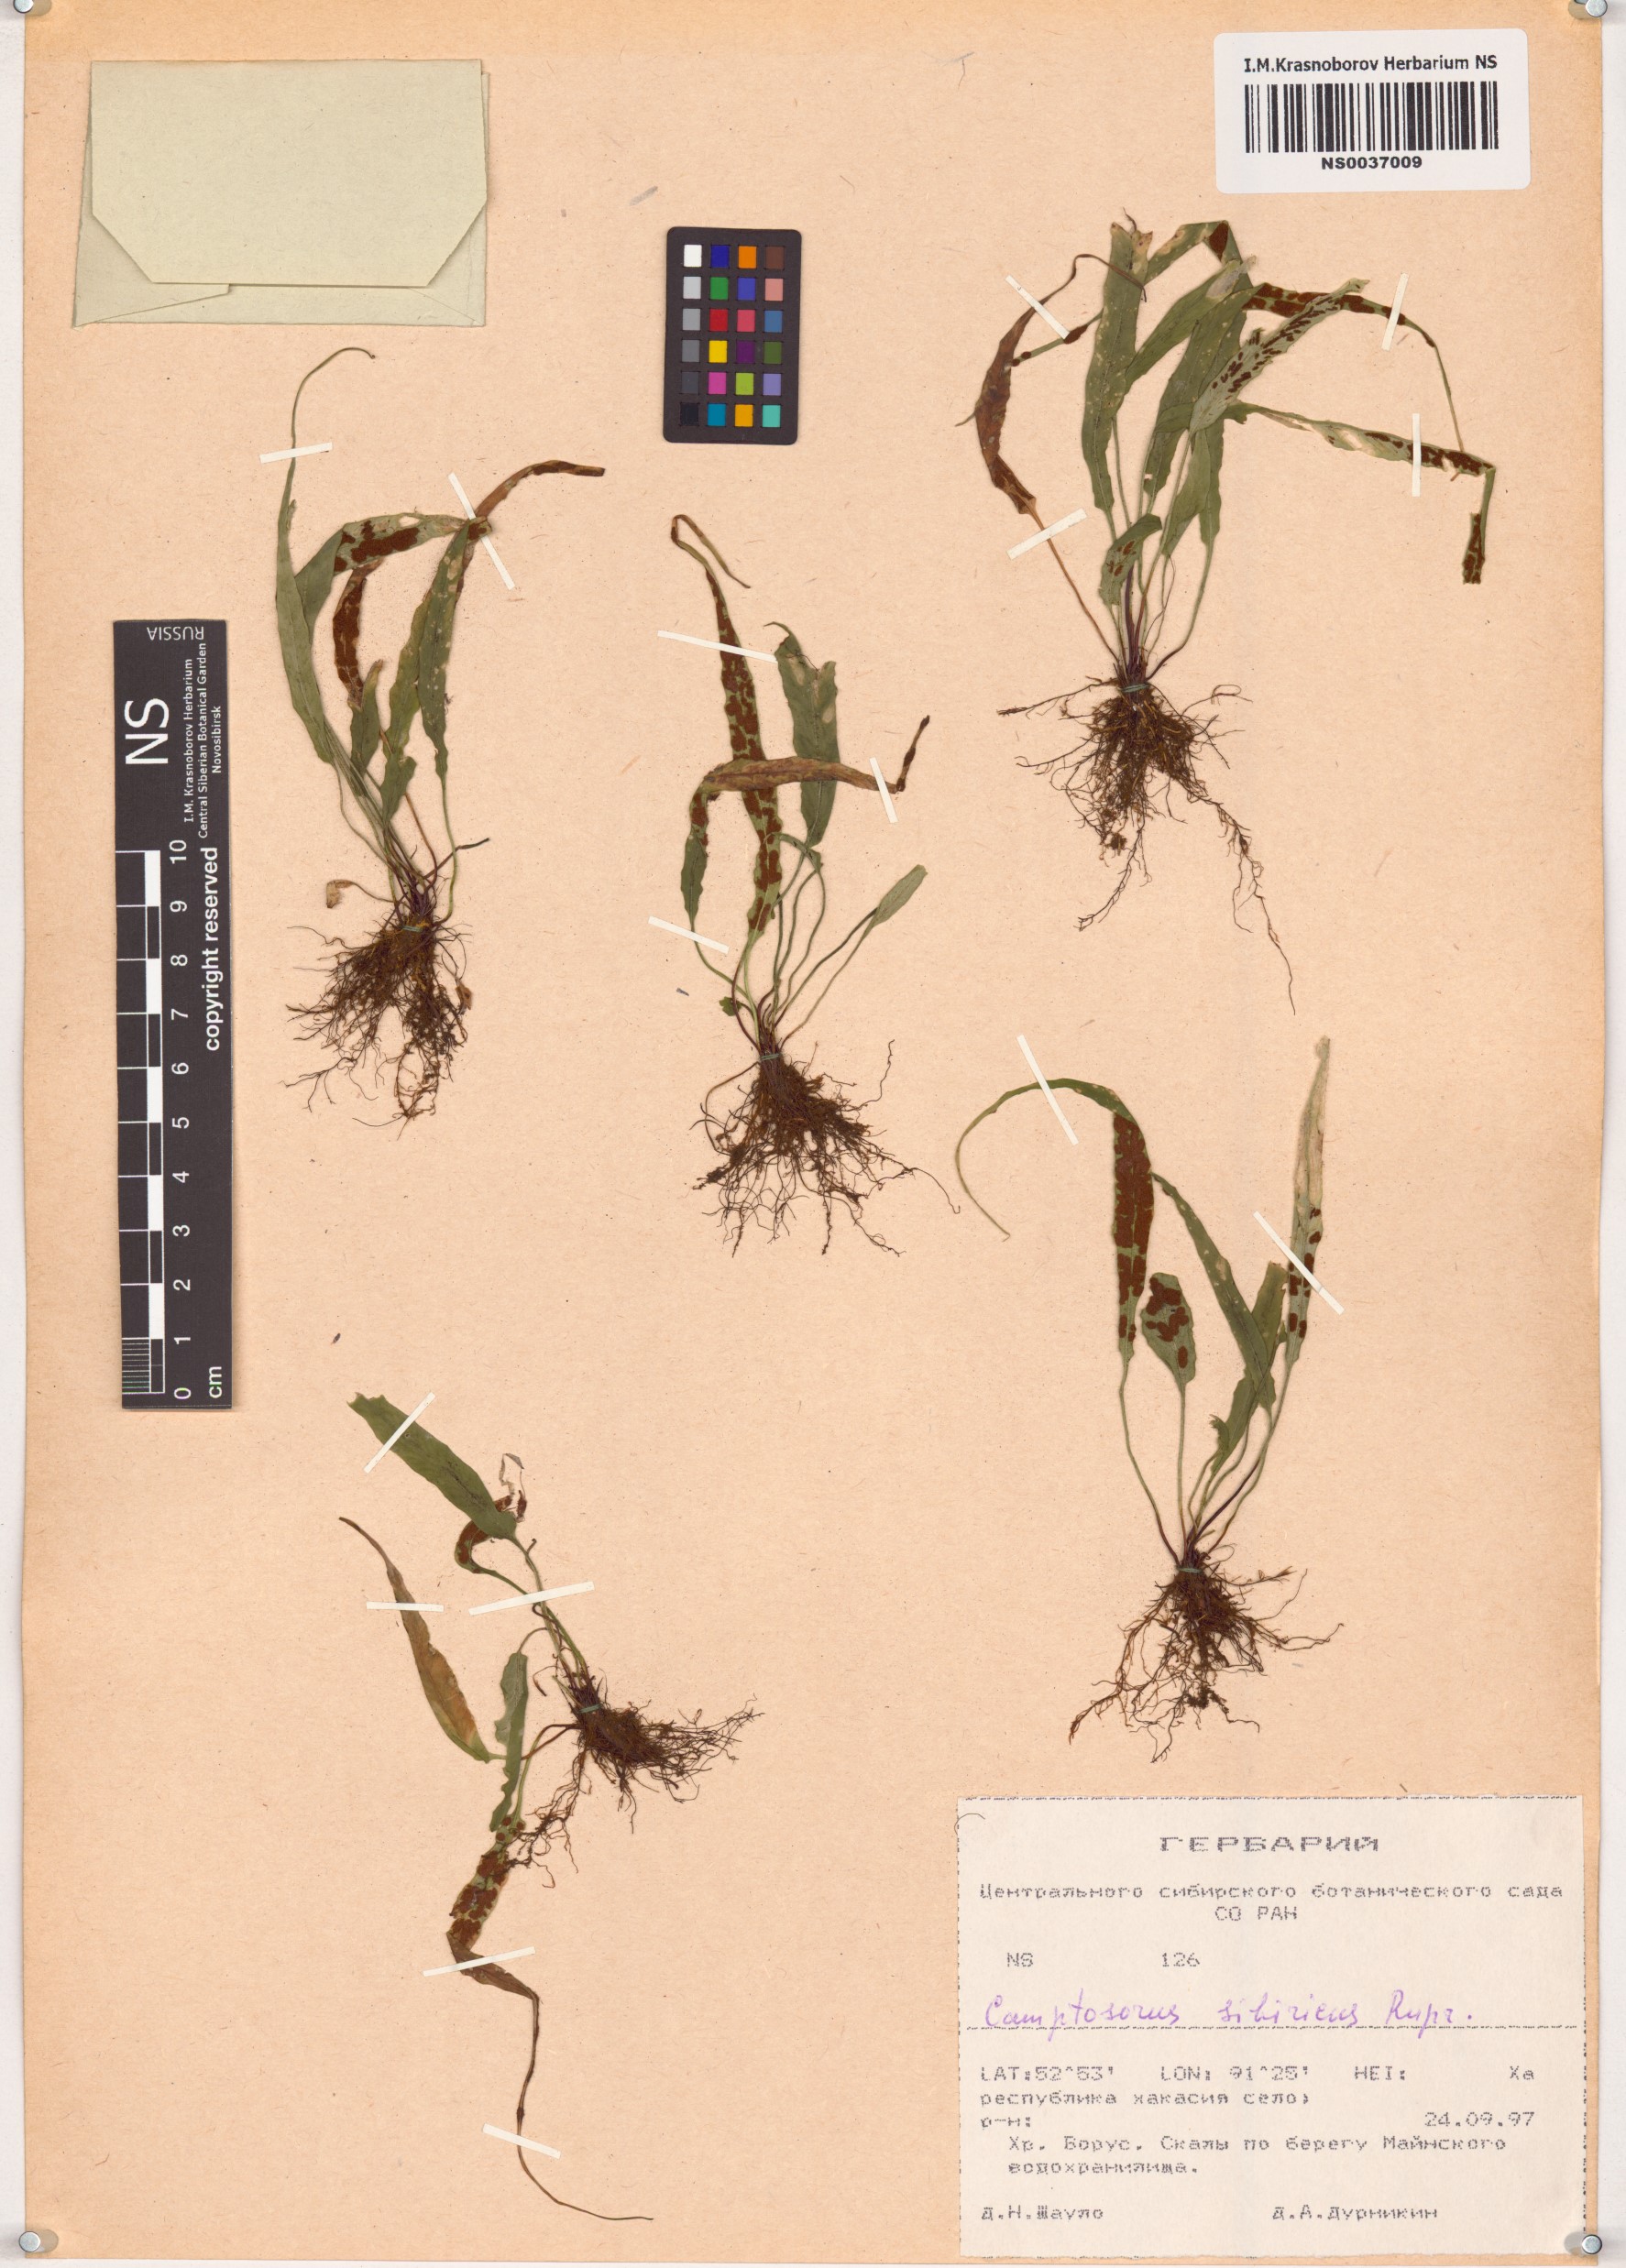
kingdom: Plantae
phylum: Tracheophyta
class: Polypodiopsida
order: Polypodiales
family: Aspleniaceae
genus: Asplenium
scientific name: Asplenium ruprechtii
